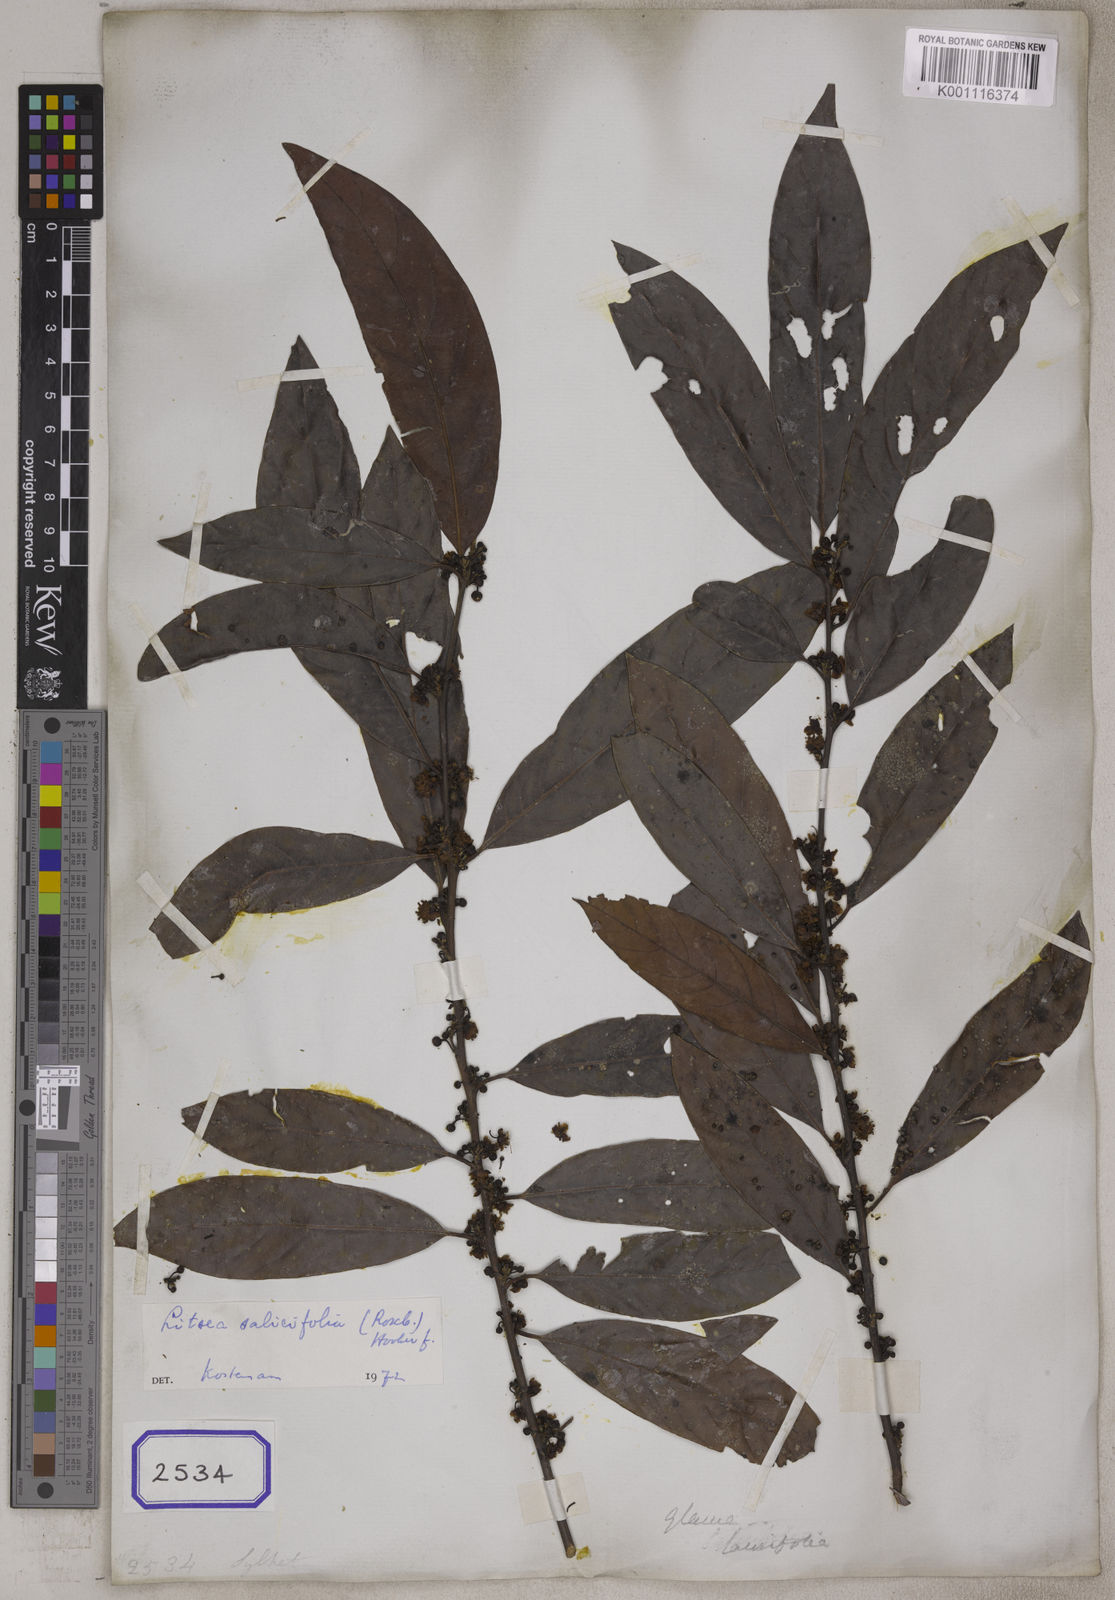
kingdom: Plantae
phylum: Tracheophyta
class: Magnoliopsida
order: Laurales
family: Lauraceae
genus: Litsea
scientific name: Litsea
